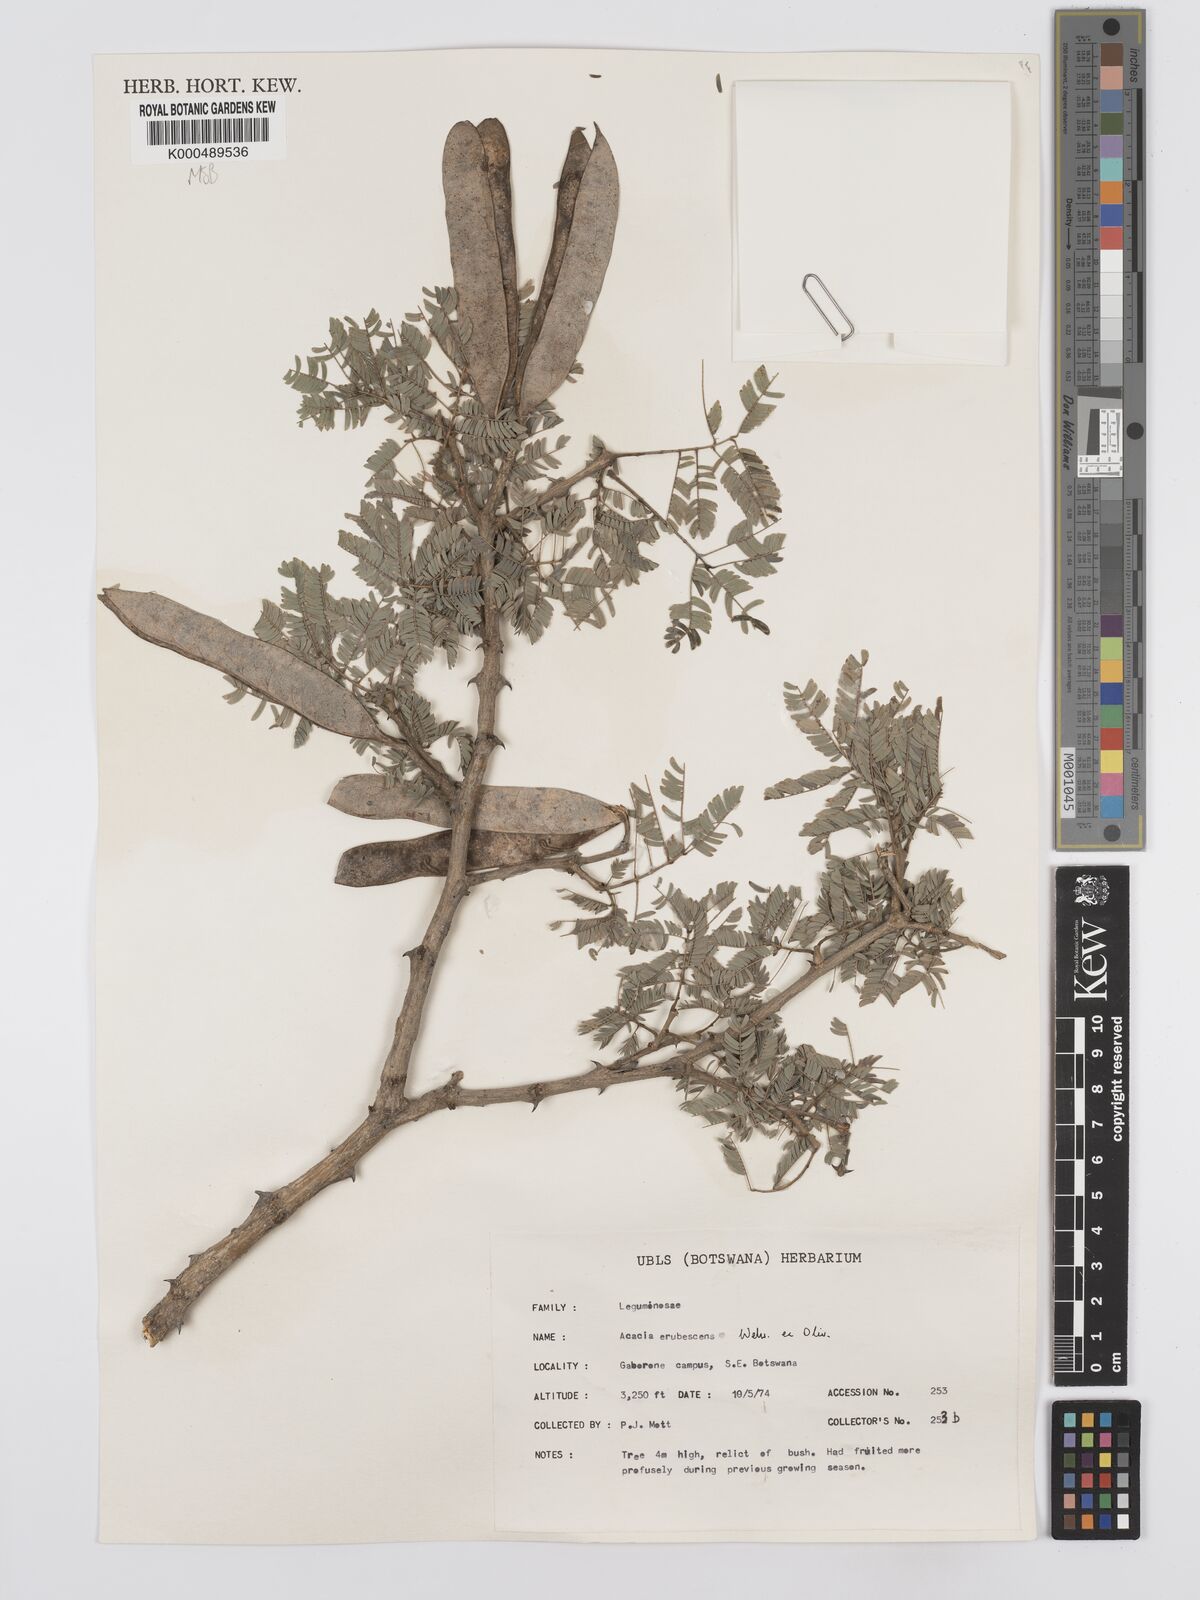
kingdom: Plantae
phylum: Tracheophyta
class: Magnoliopsida
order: Fabales
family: Fabaceae
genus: Senegalia
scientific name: Senegalia erubescens
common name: Bluethorn
